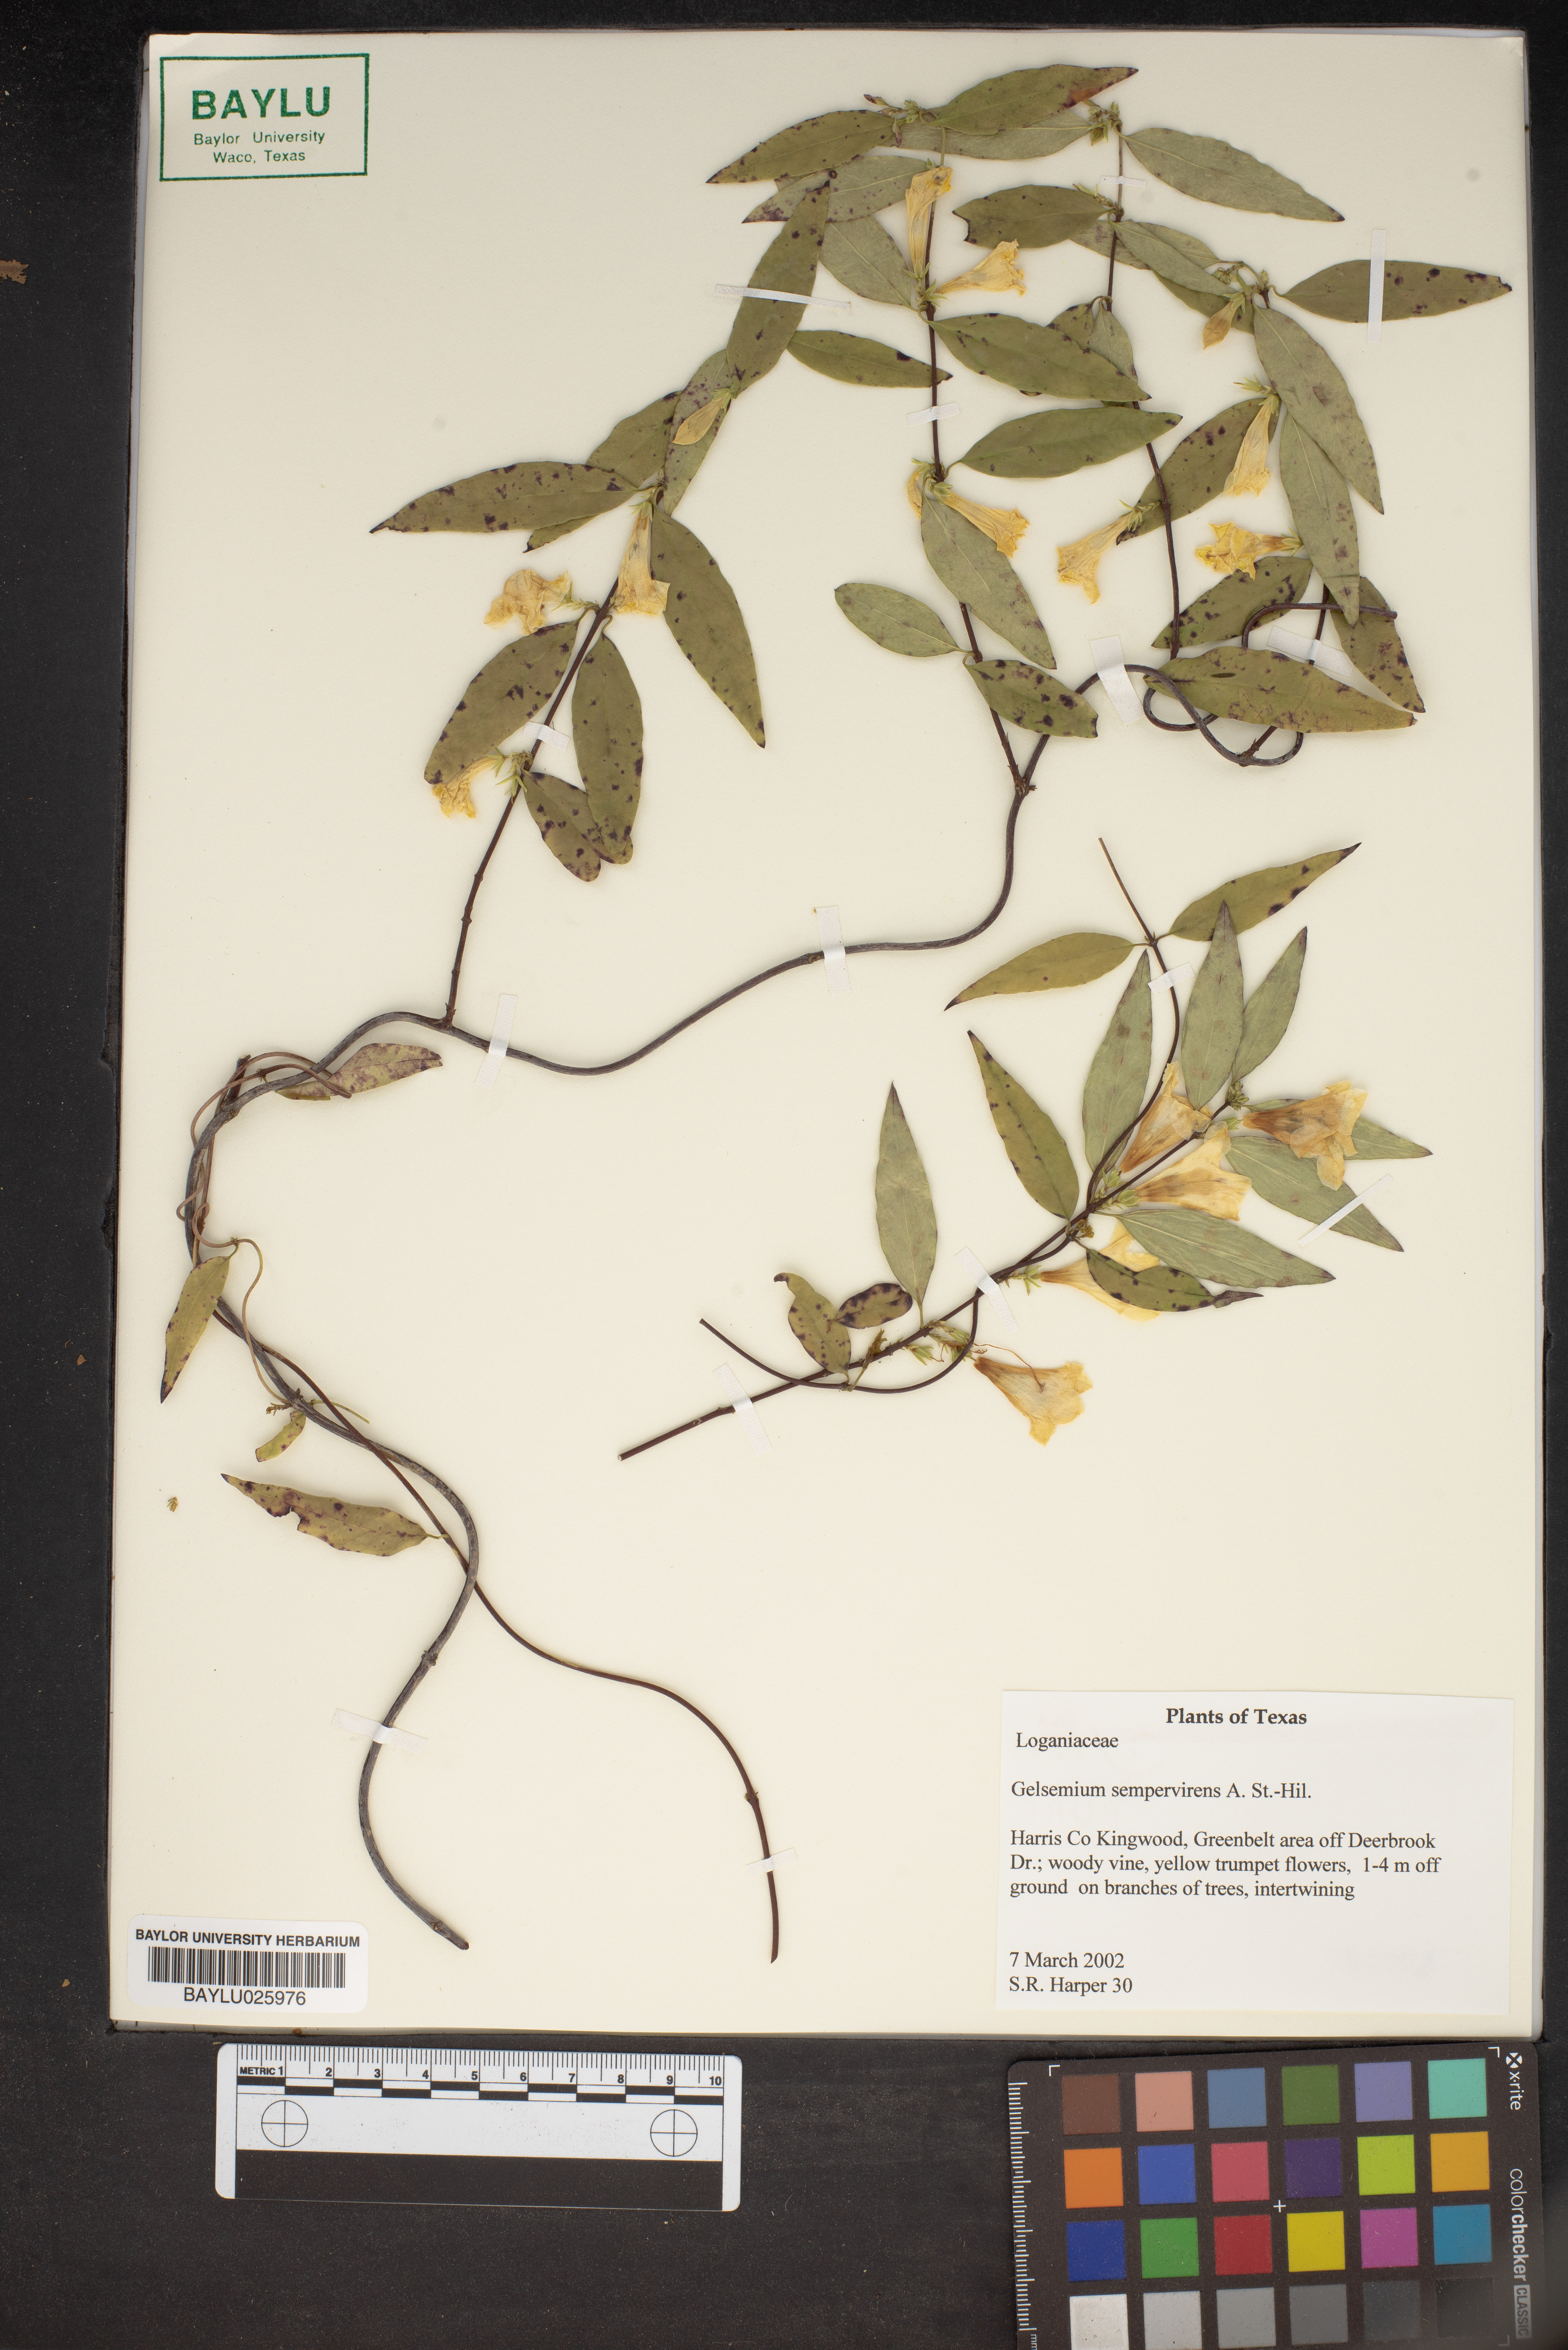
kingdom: Plantae
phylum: Tracheophyta
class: Magnoliopsida
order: Gentianales
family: Gelsemiaceae
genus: Gelsemium
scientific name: Gelsemium sempervirens
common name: Carolina-jasmine
